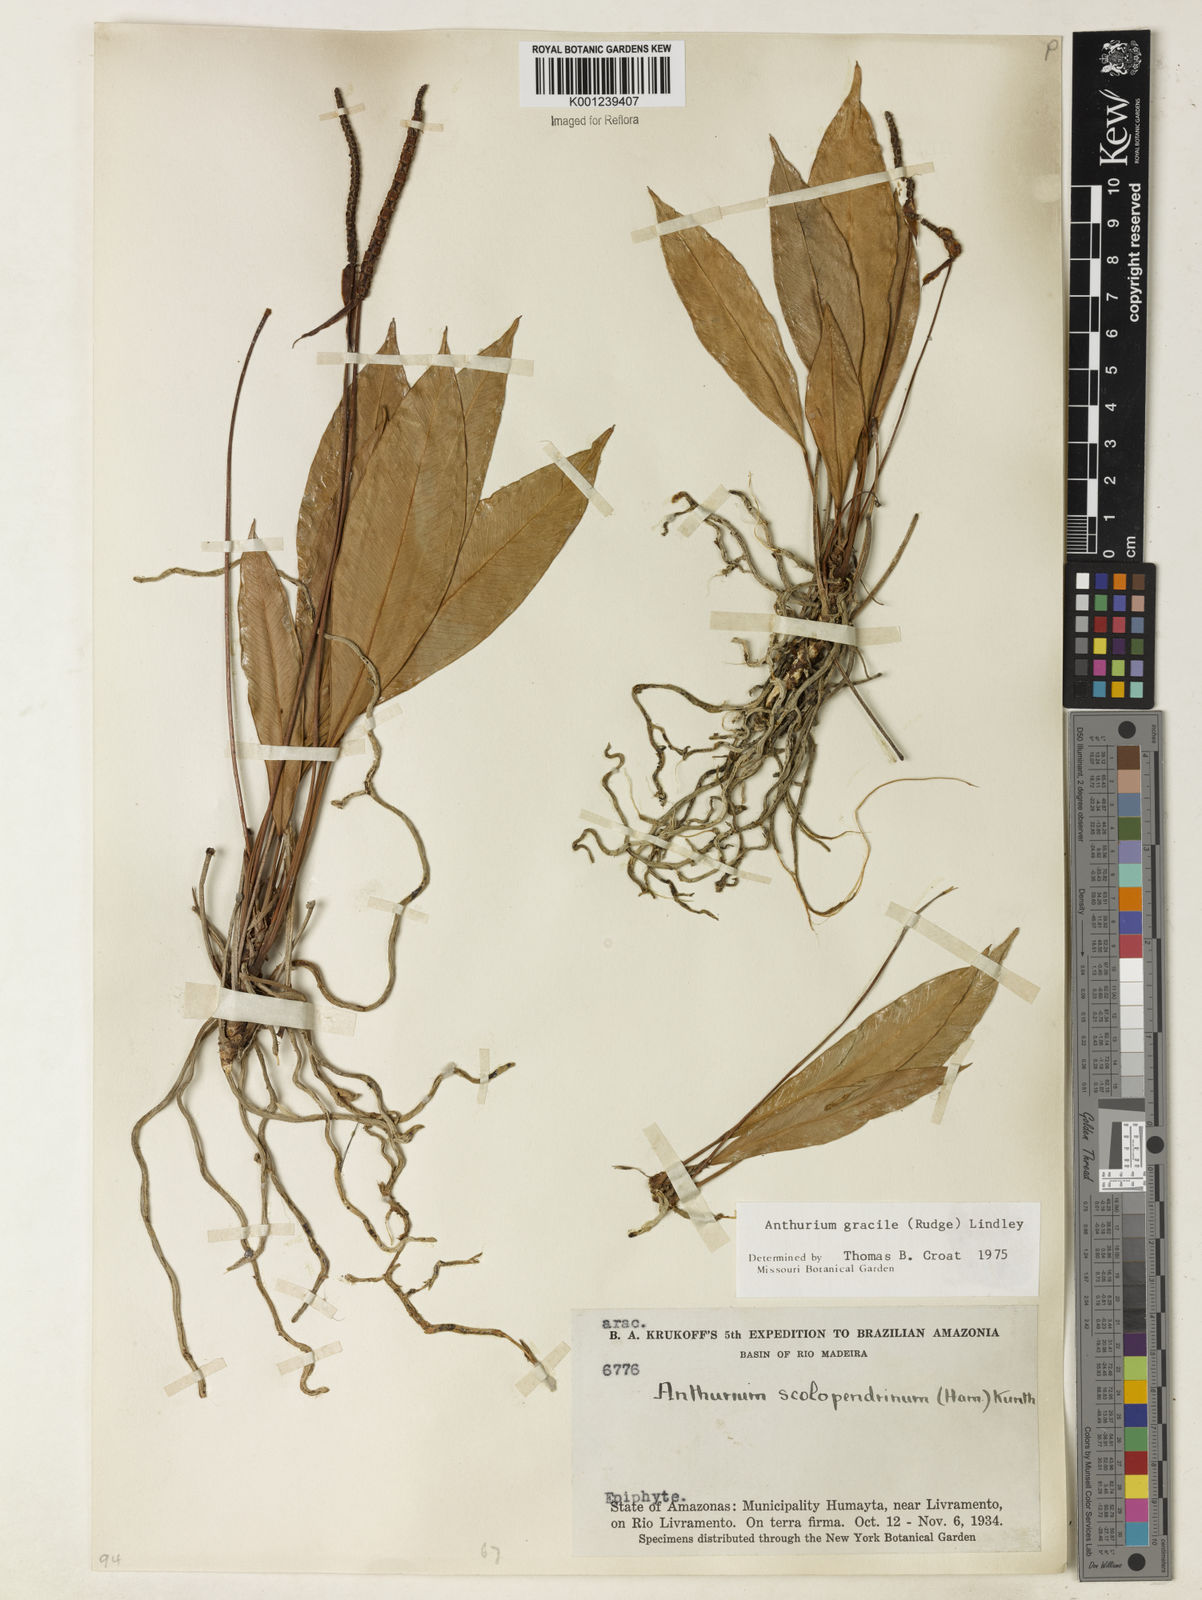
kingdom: Plantae
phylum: Tracheophyta
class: Liliopsida
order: Alismatales
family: Araceae
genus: Anthurium
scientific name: Anthurium gracile
